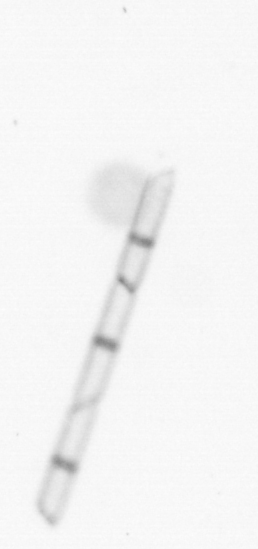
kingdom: Chromista
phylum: Ochrophyta
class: Bacillariophyceae
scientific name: Bacillariophyceae
